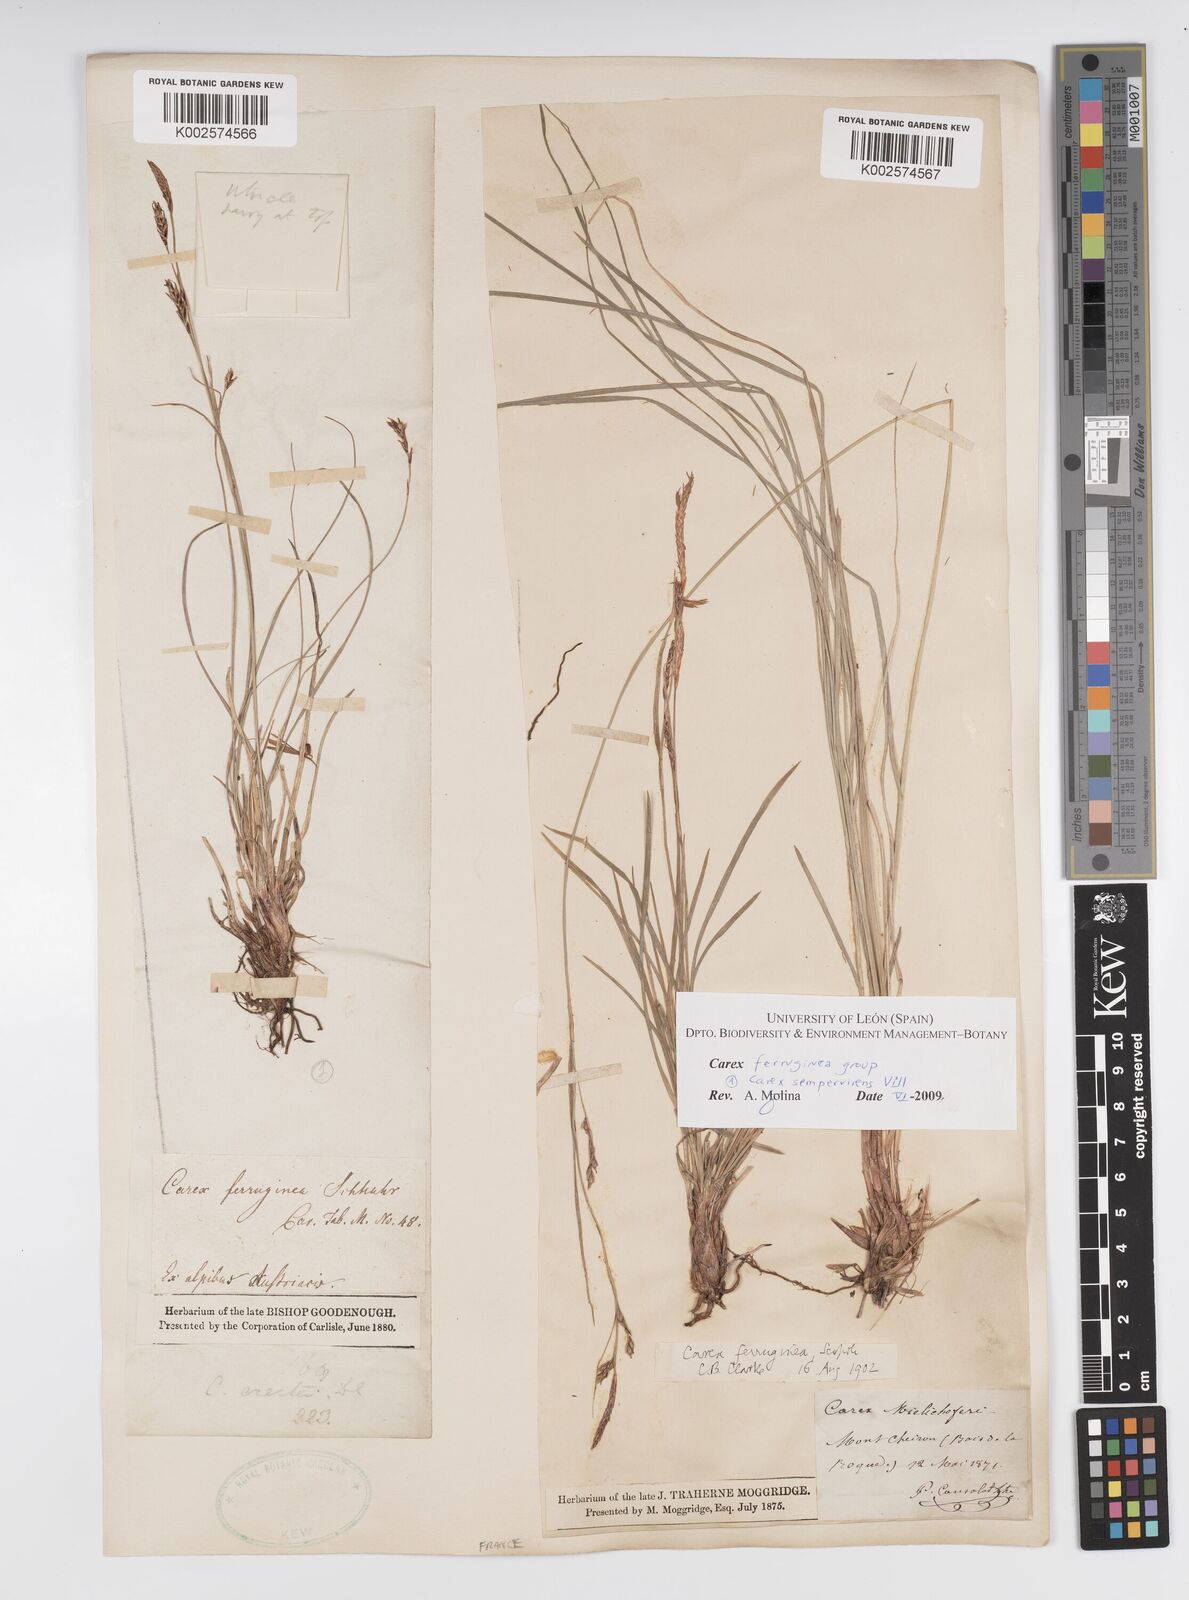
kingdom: Plantae
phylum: Tracheophyta
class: Liliopsida
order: Poales
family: Cyperaceae
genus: Carex
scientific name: Carex sempervirens
